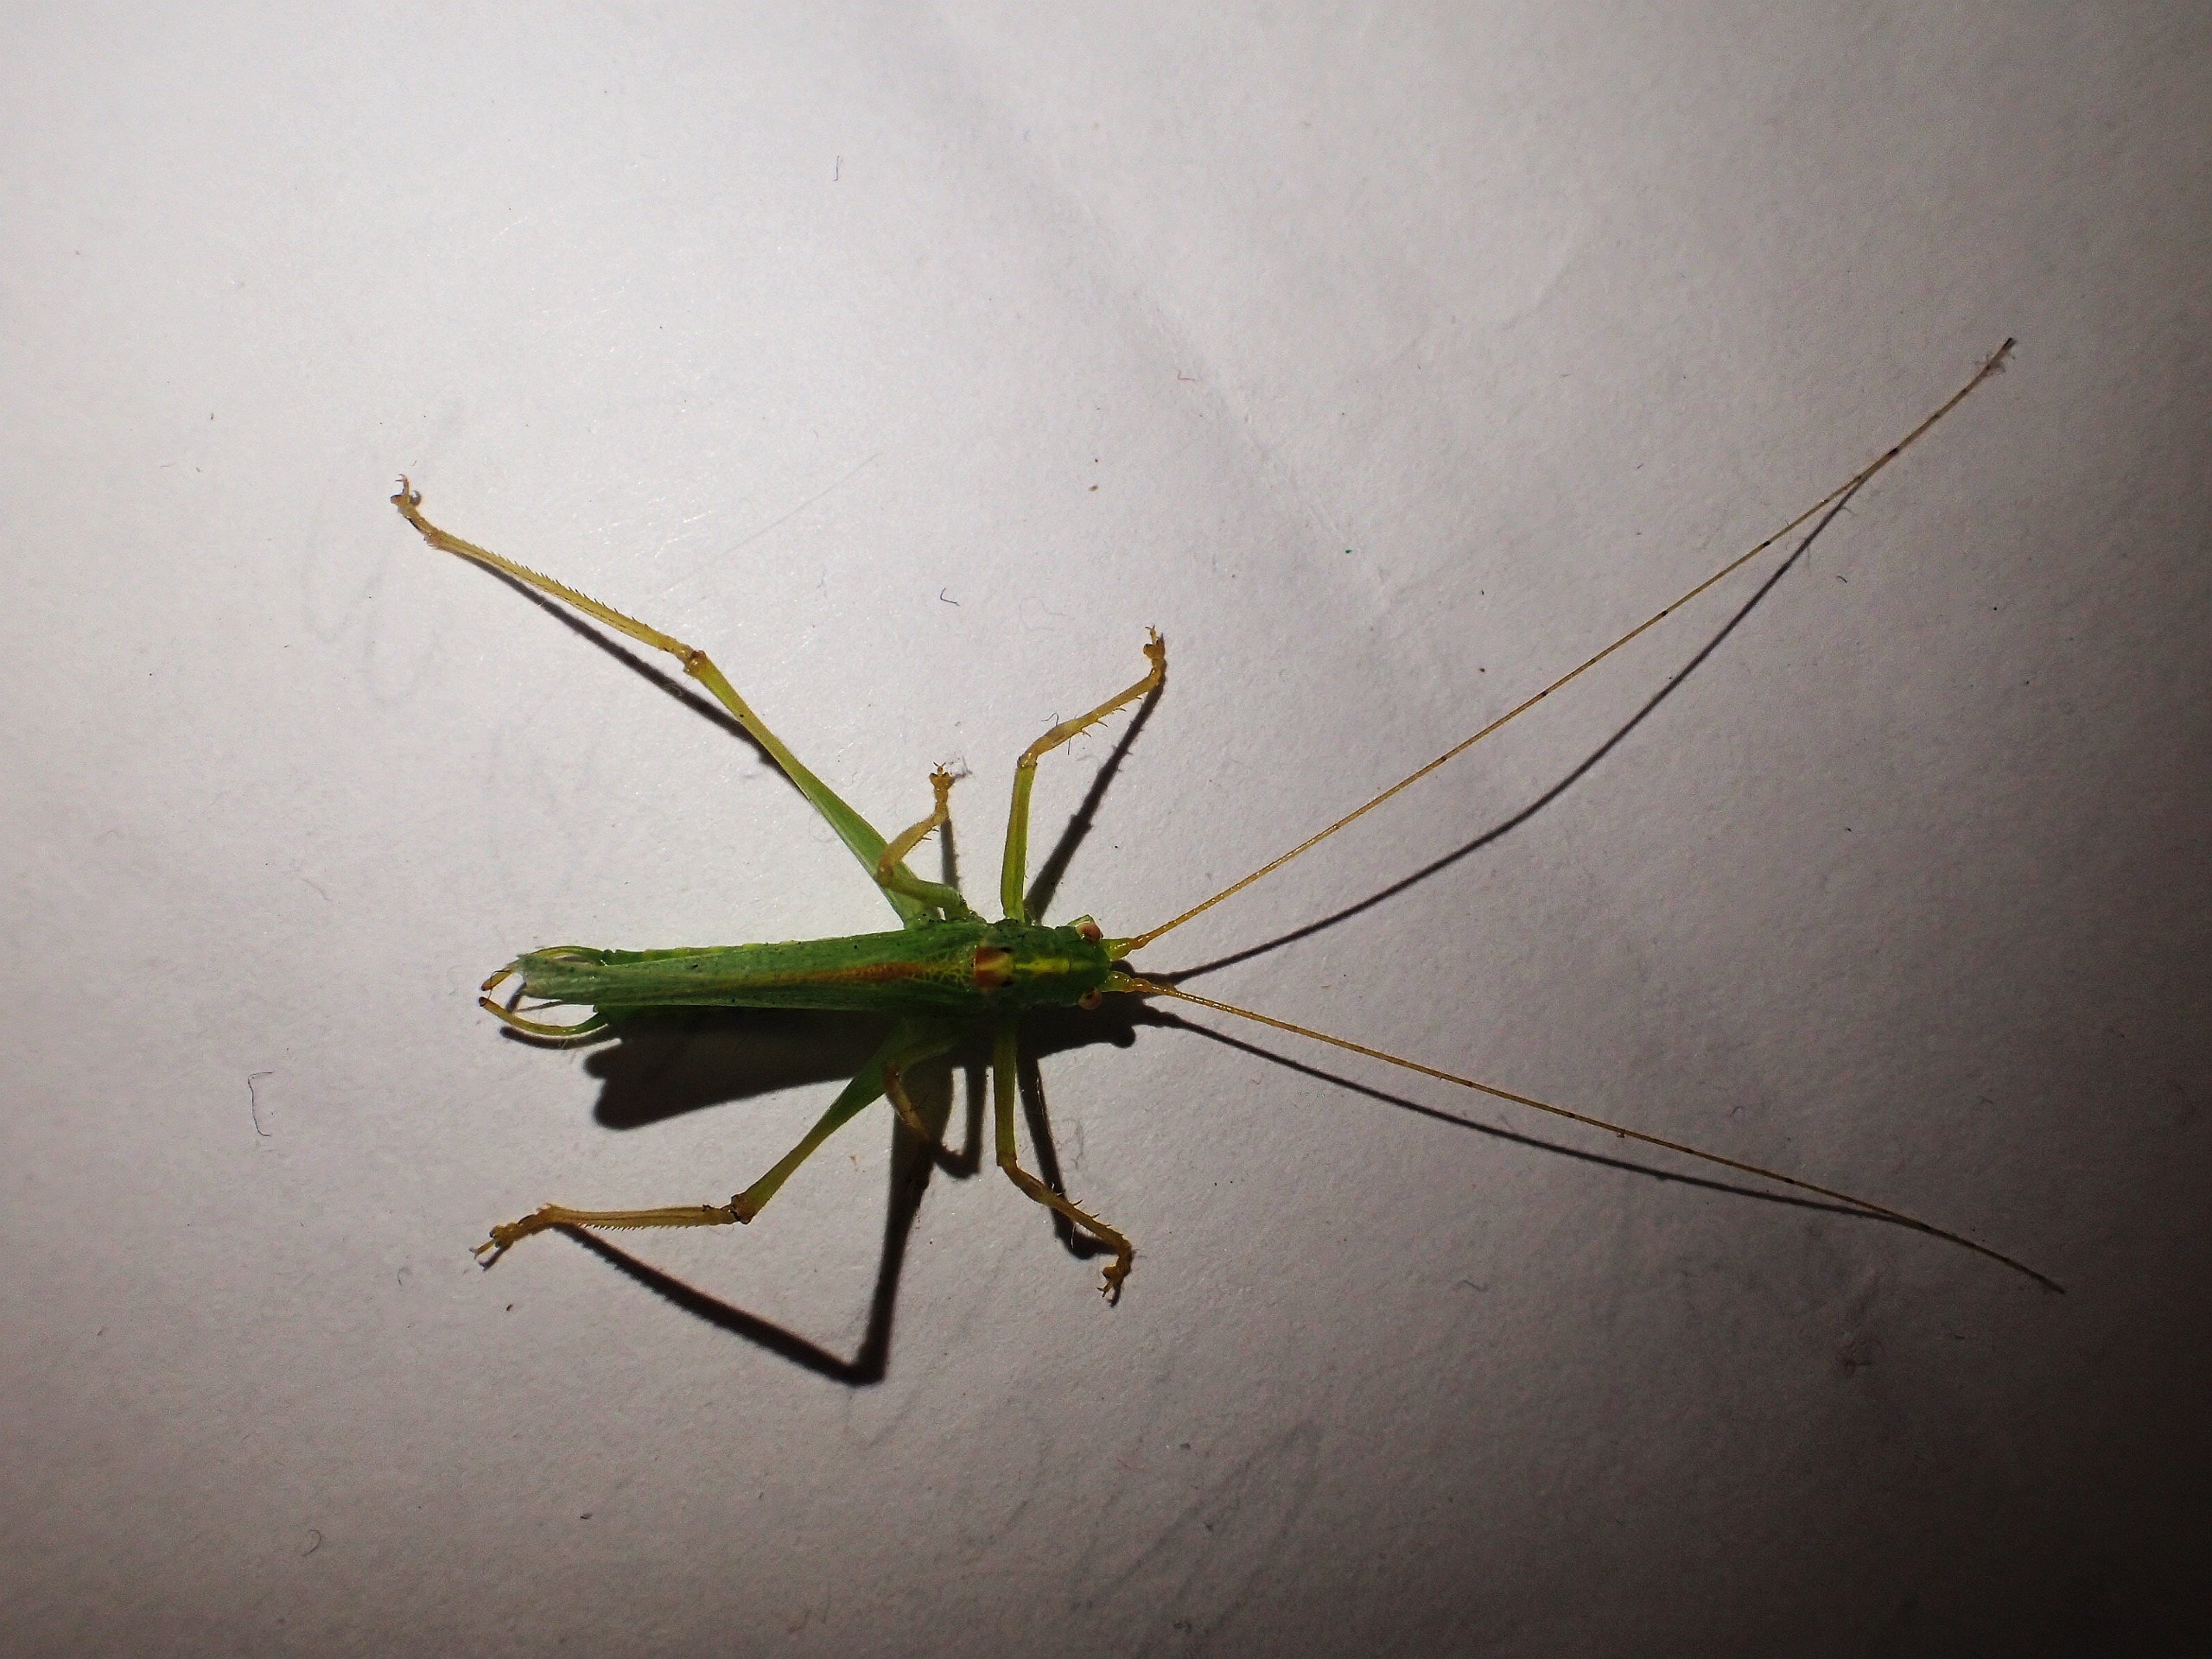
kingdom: Animalia
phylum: Arthropoda
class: Insecta
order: Orthoptera
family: Tettigoniidae
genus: Meconema
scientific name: Meconema thalassinum
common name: Egegræshoppe
